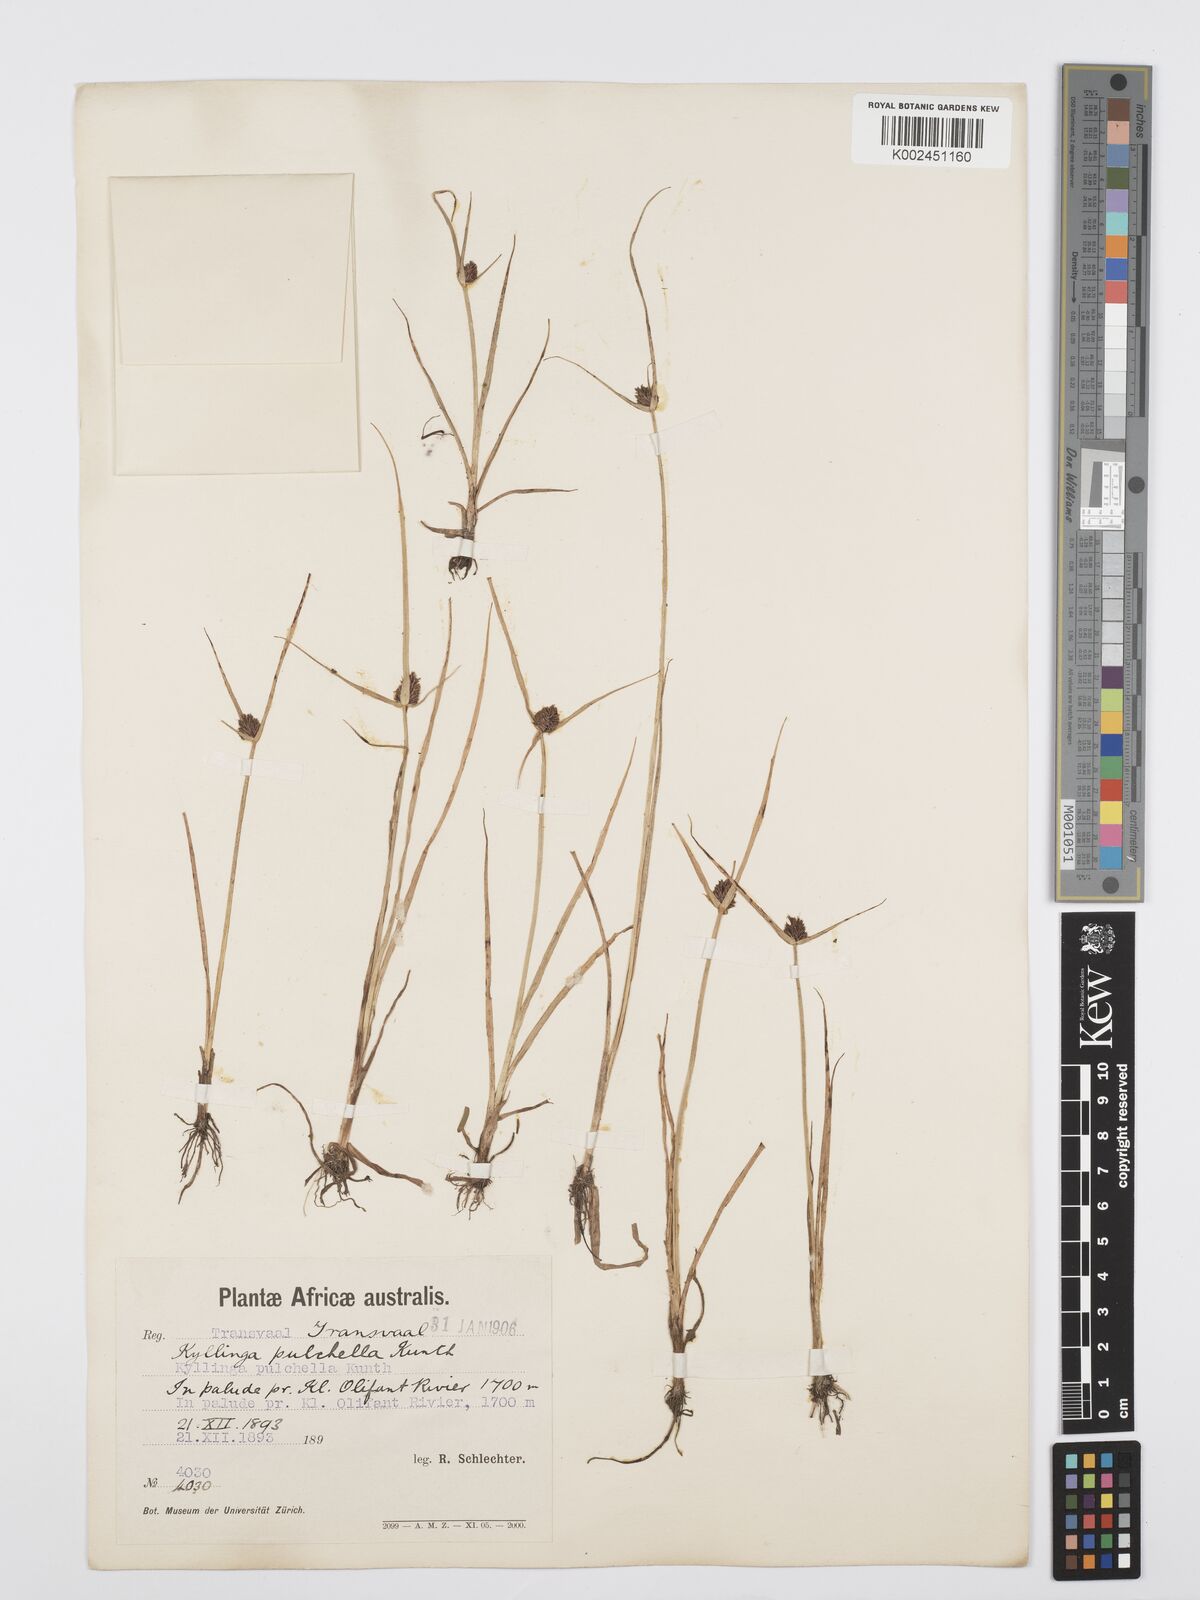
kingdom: Plantae
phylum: Tracheophyta
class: Liliopsida
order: Poales
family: Cyperaceae
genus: Cyperus
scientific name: Cyperus
